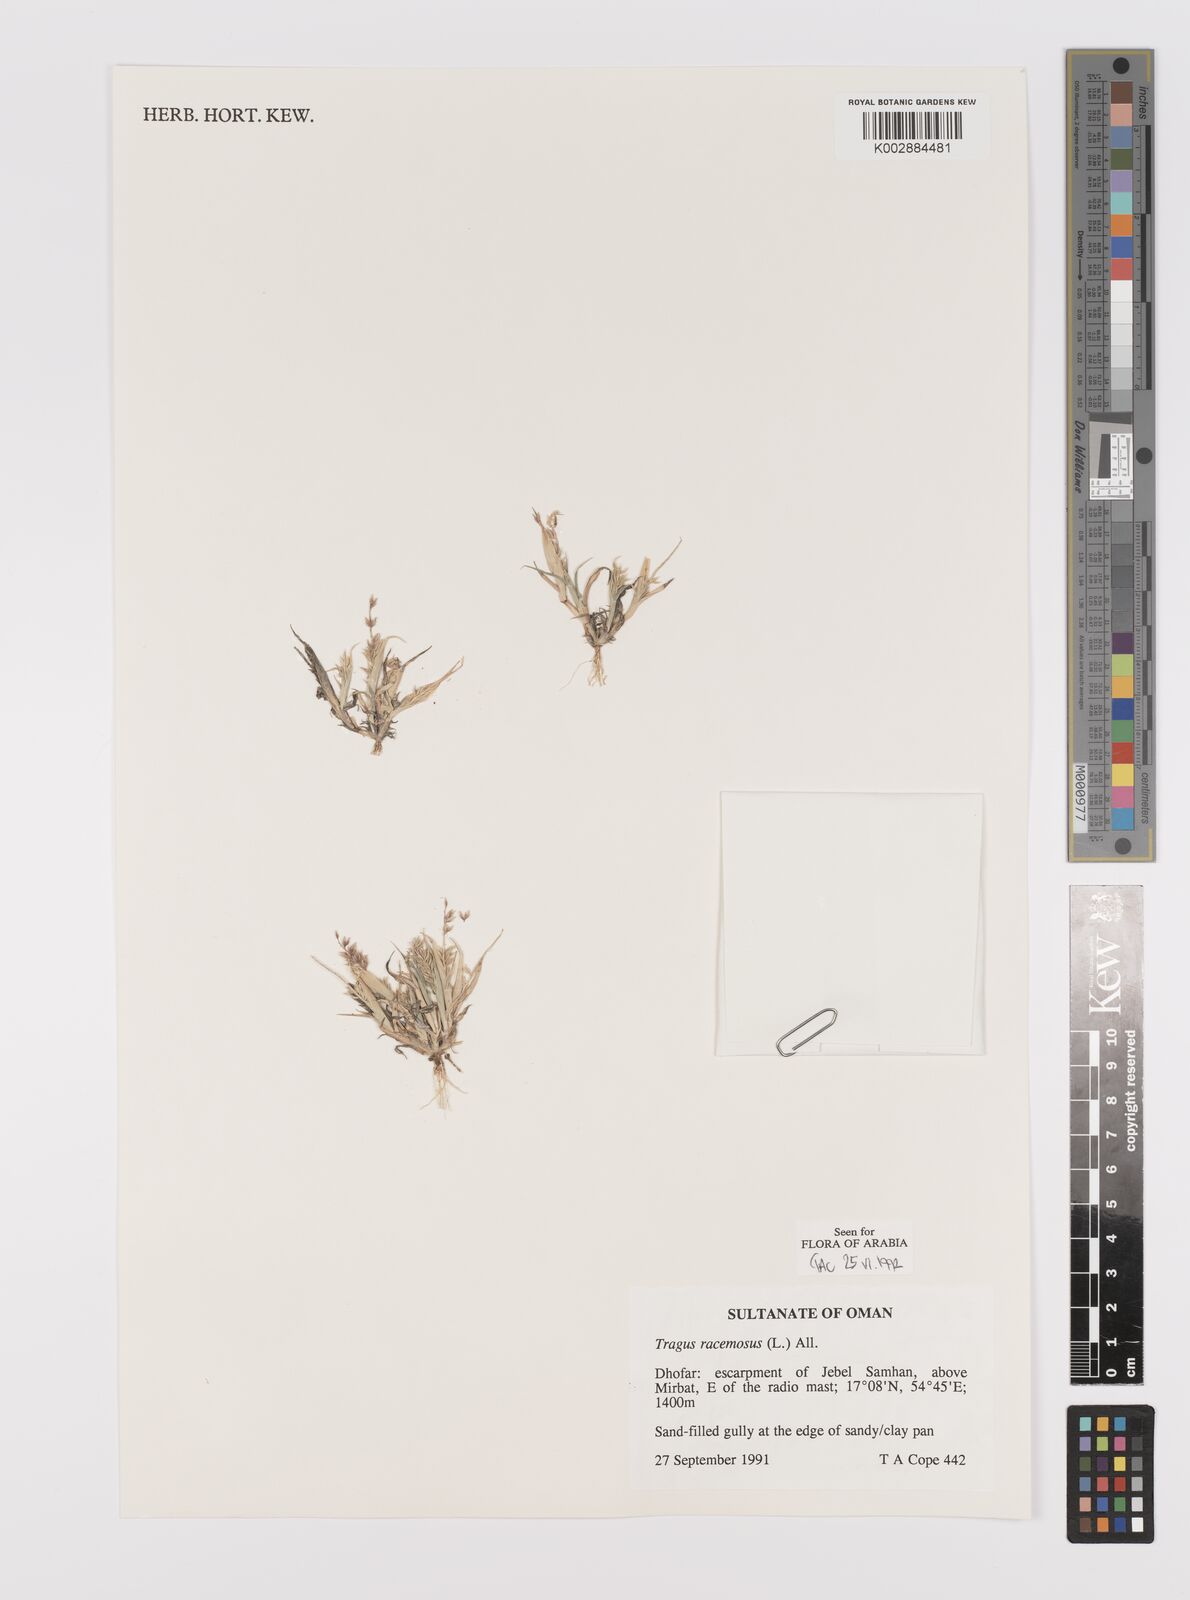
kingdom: Plantae
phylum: Tracheophyta
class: Liliopsida
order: Poales
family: Poaceae
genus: Tragus
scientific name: Tragus racemosus
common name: European bur-grass
